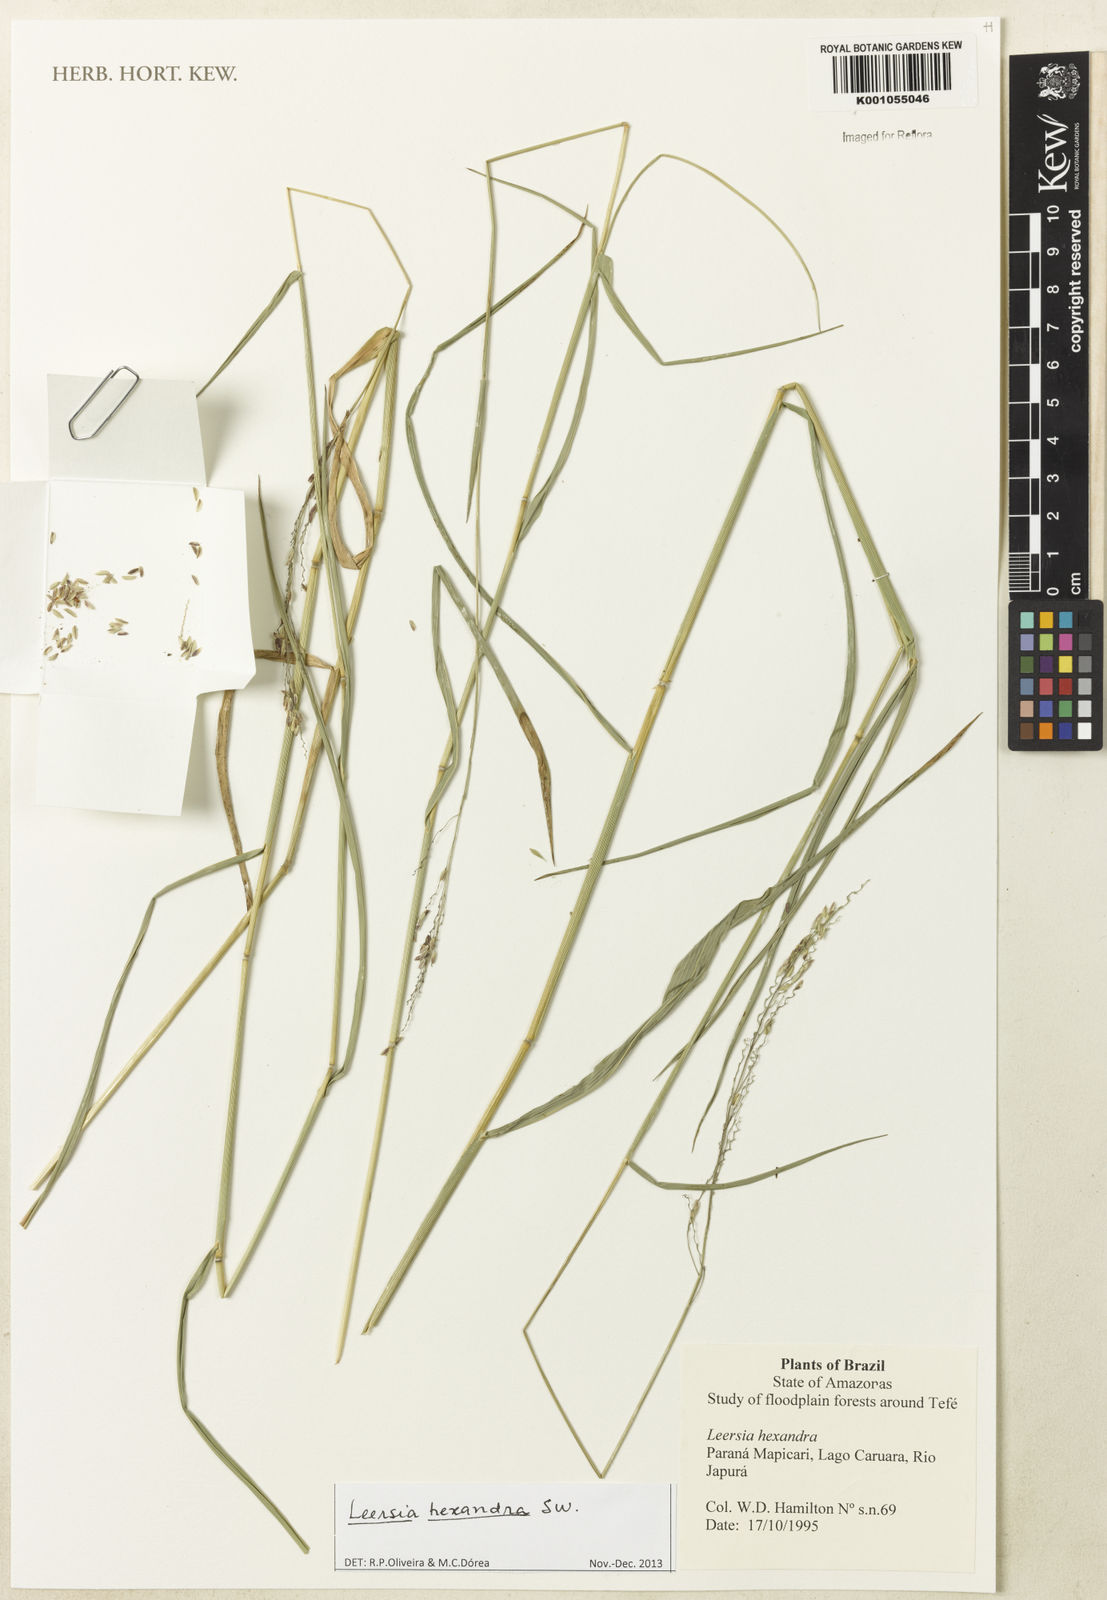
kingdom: Plantae
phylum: Tracheophyta
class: Liliopsida
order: Poales
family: Poaceae
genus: Leersia
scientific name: Leersia hexandra
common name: Southern cut grass
